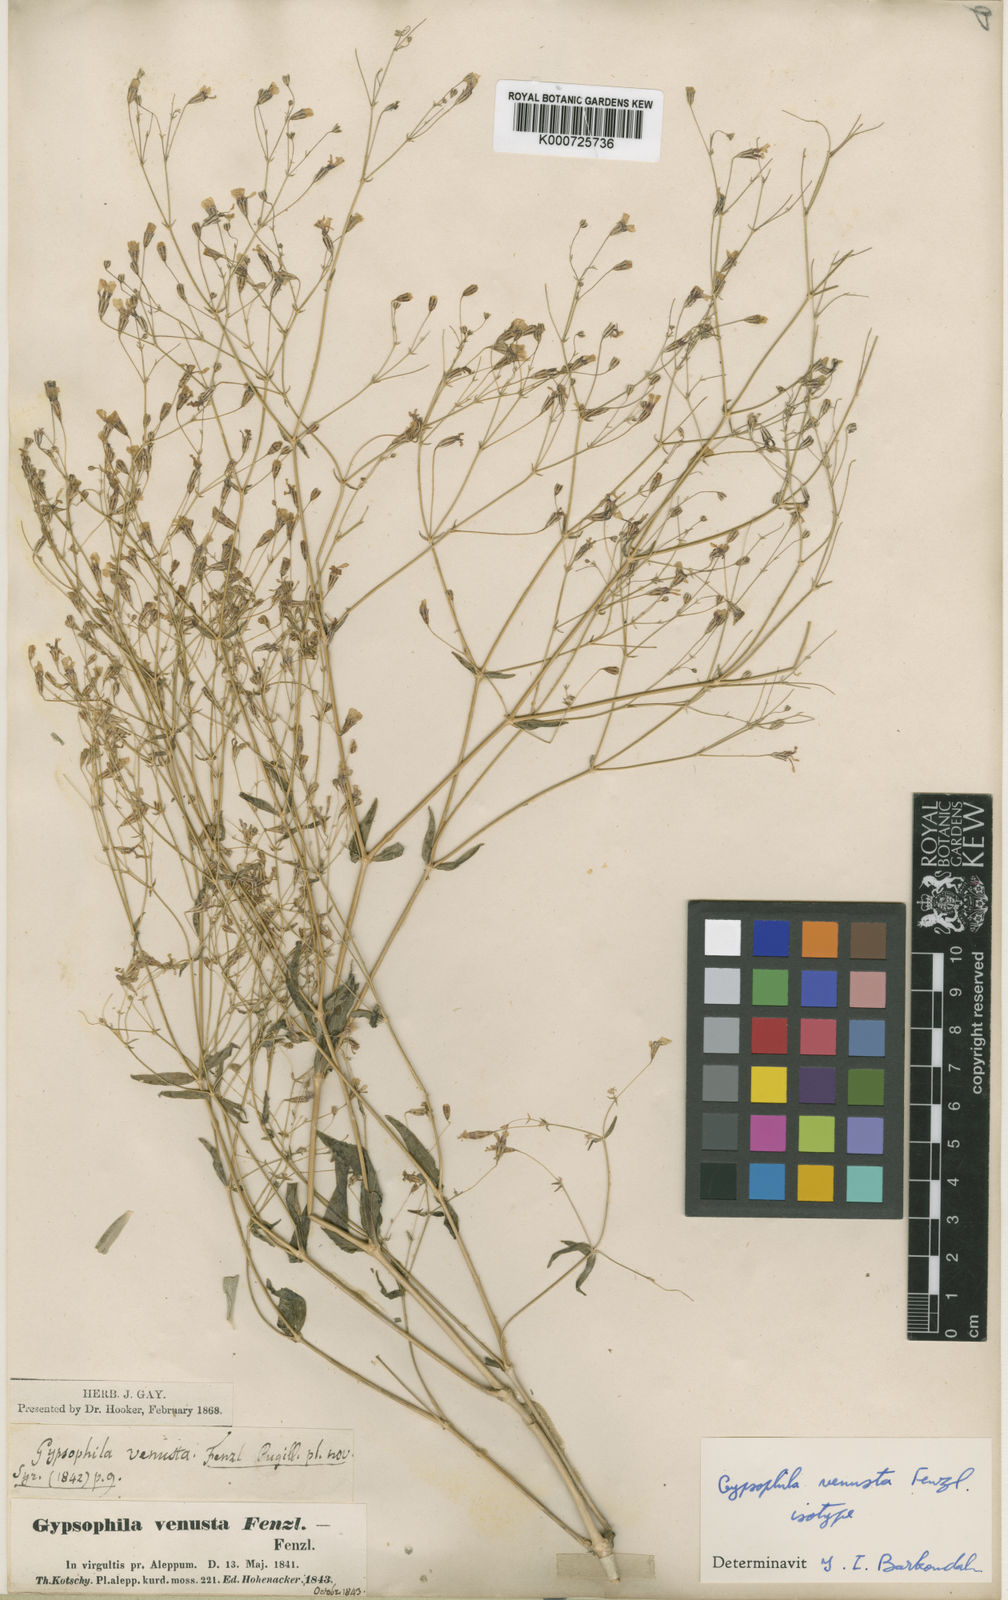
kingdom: Plantae
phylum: Tracheophyta
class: Magnoliopsida
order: Caryophyllales
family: Caryophyllaceae
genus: Gypsophila
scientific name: Gypsophila venusta
